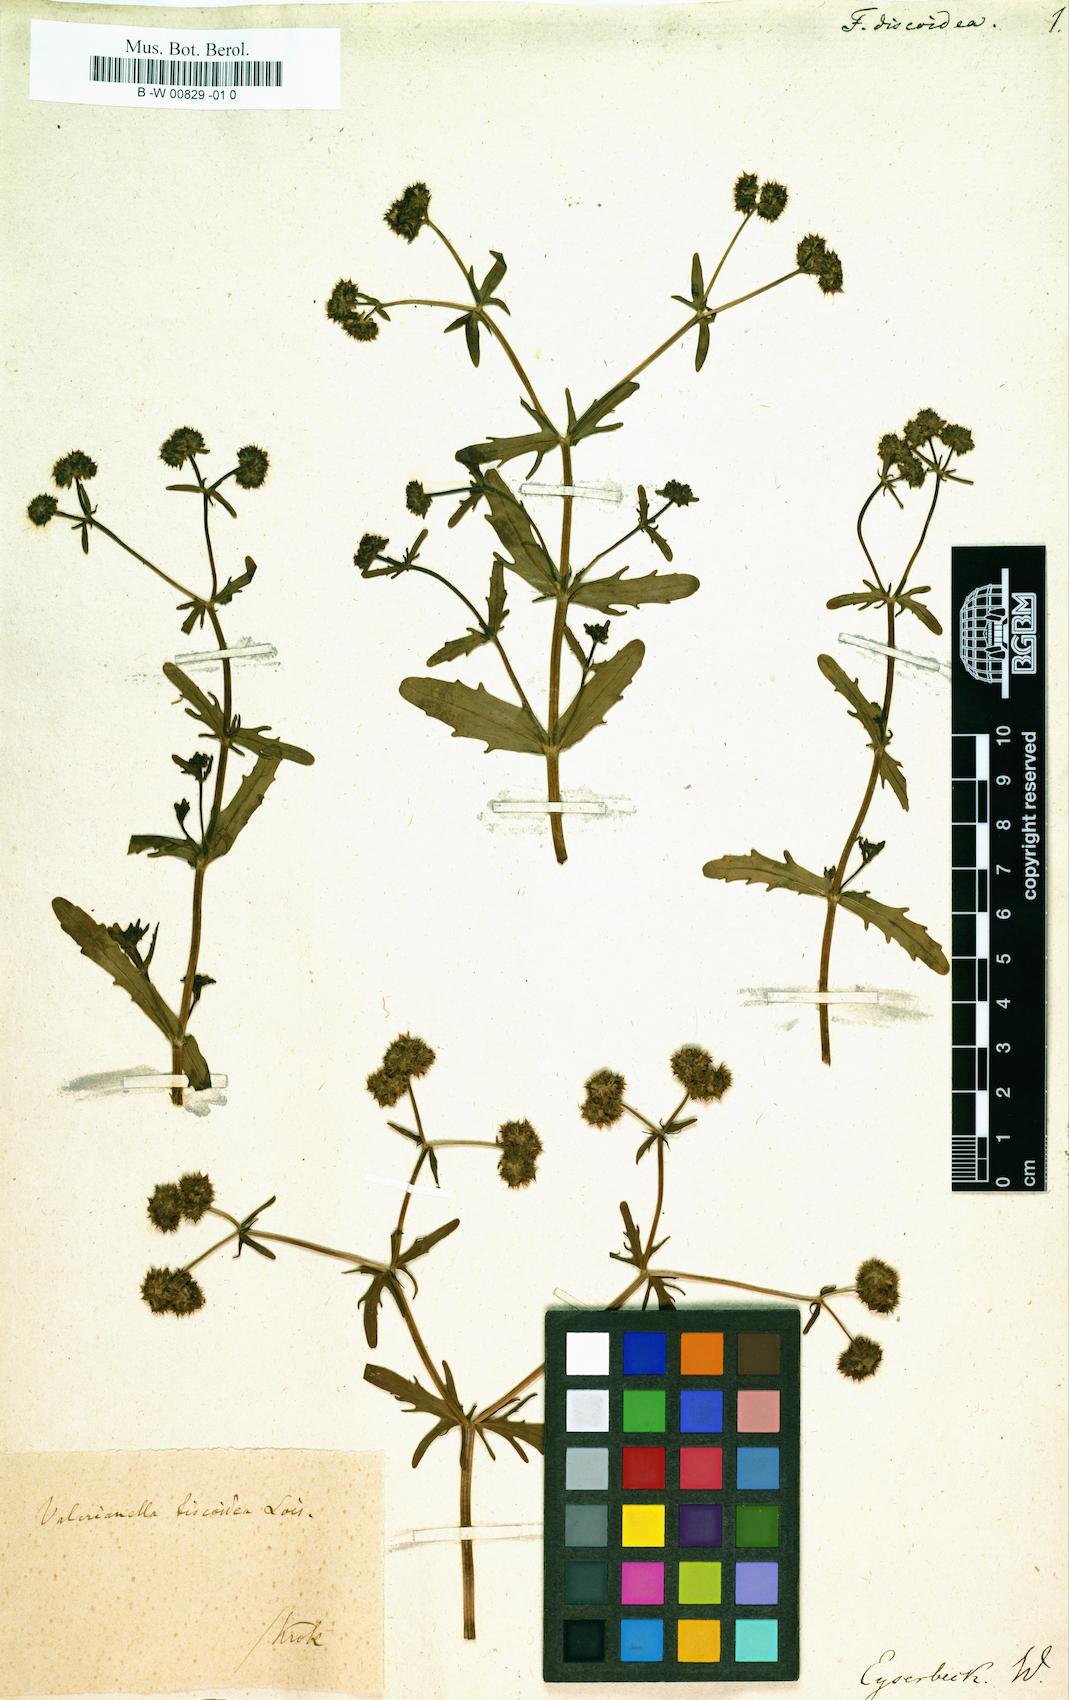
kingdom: Plantae
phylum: Tracheophyta
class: Magnoliopsida
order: Dipsacales
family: Caprifoliaceae
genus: Valerianella
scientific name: Valerianella discoidea
